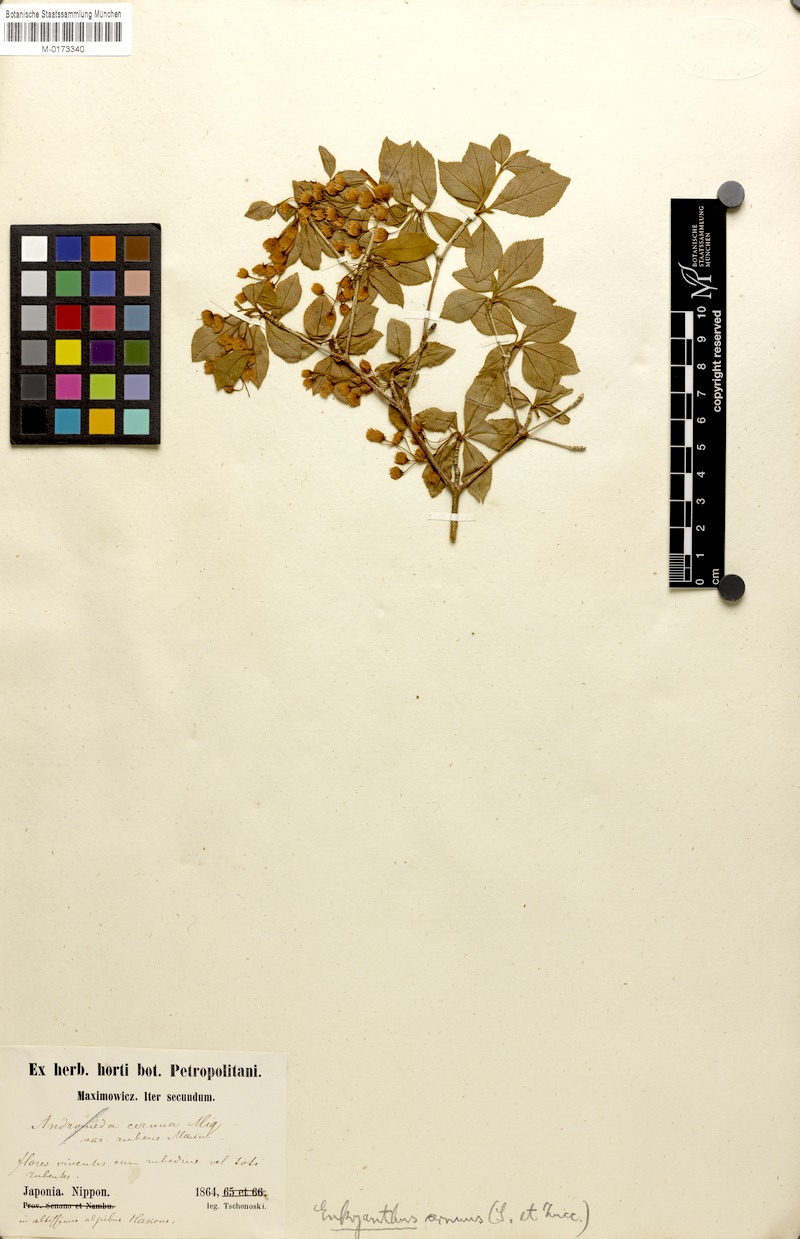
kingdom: Plantae
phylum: Tracheophyta
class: Magnoliopsida
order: Ericales
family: Ericaceae
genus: Enkianthus
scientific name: Enkianthus cernuus
